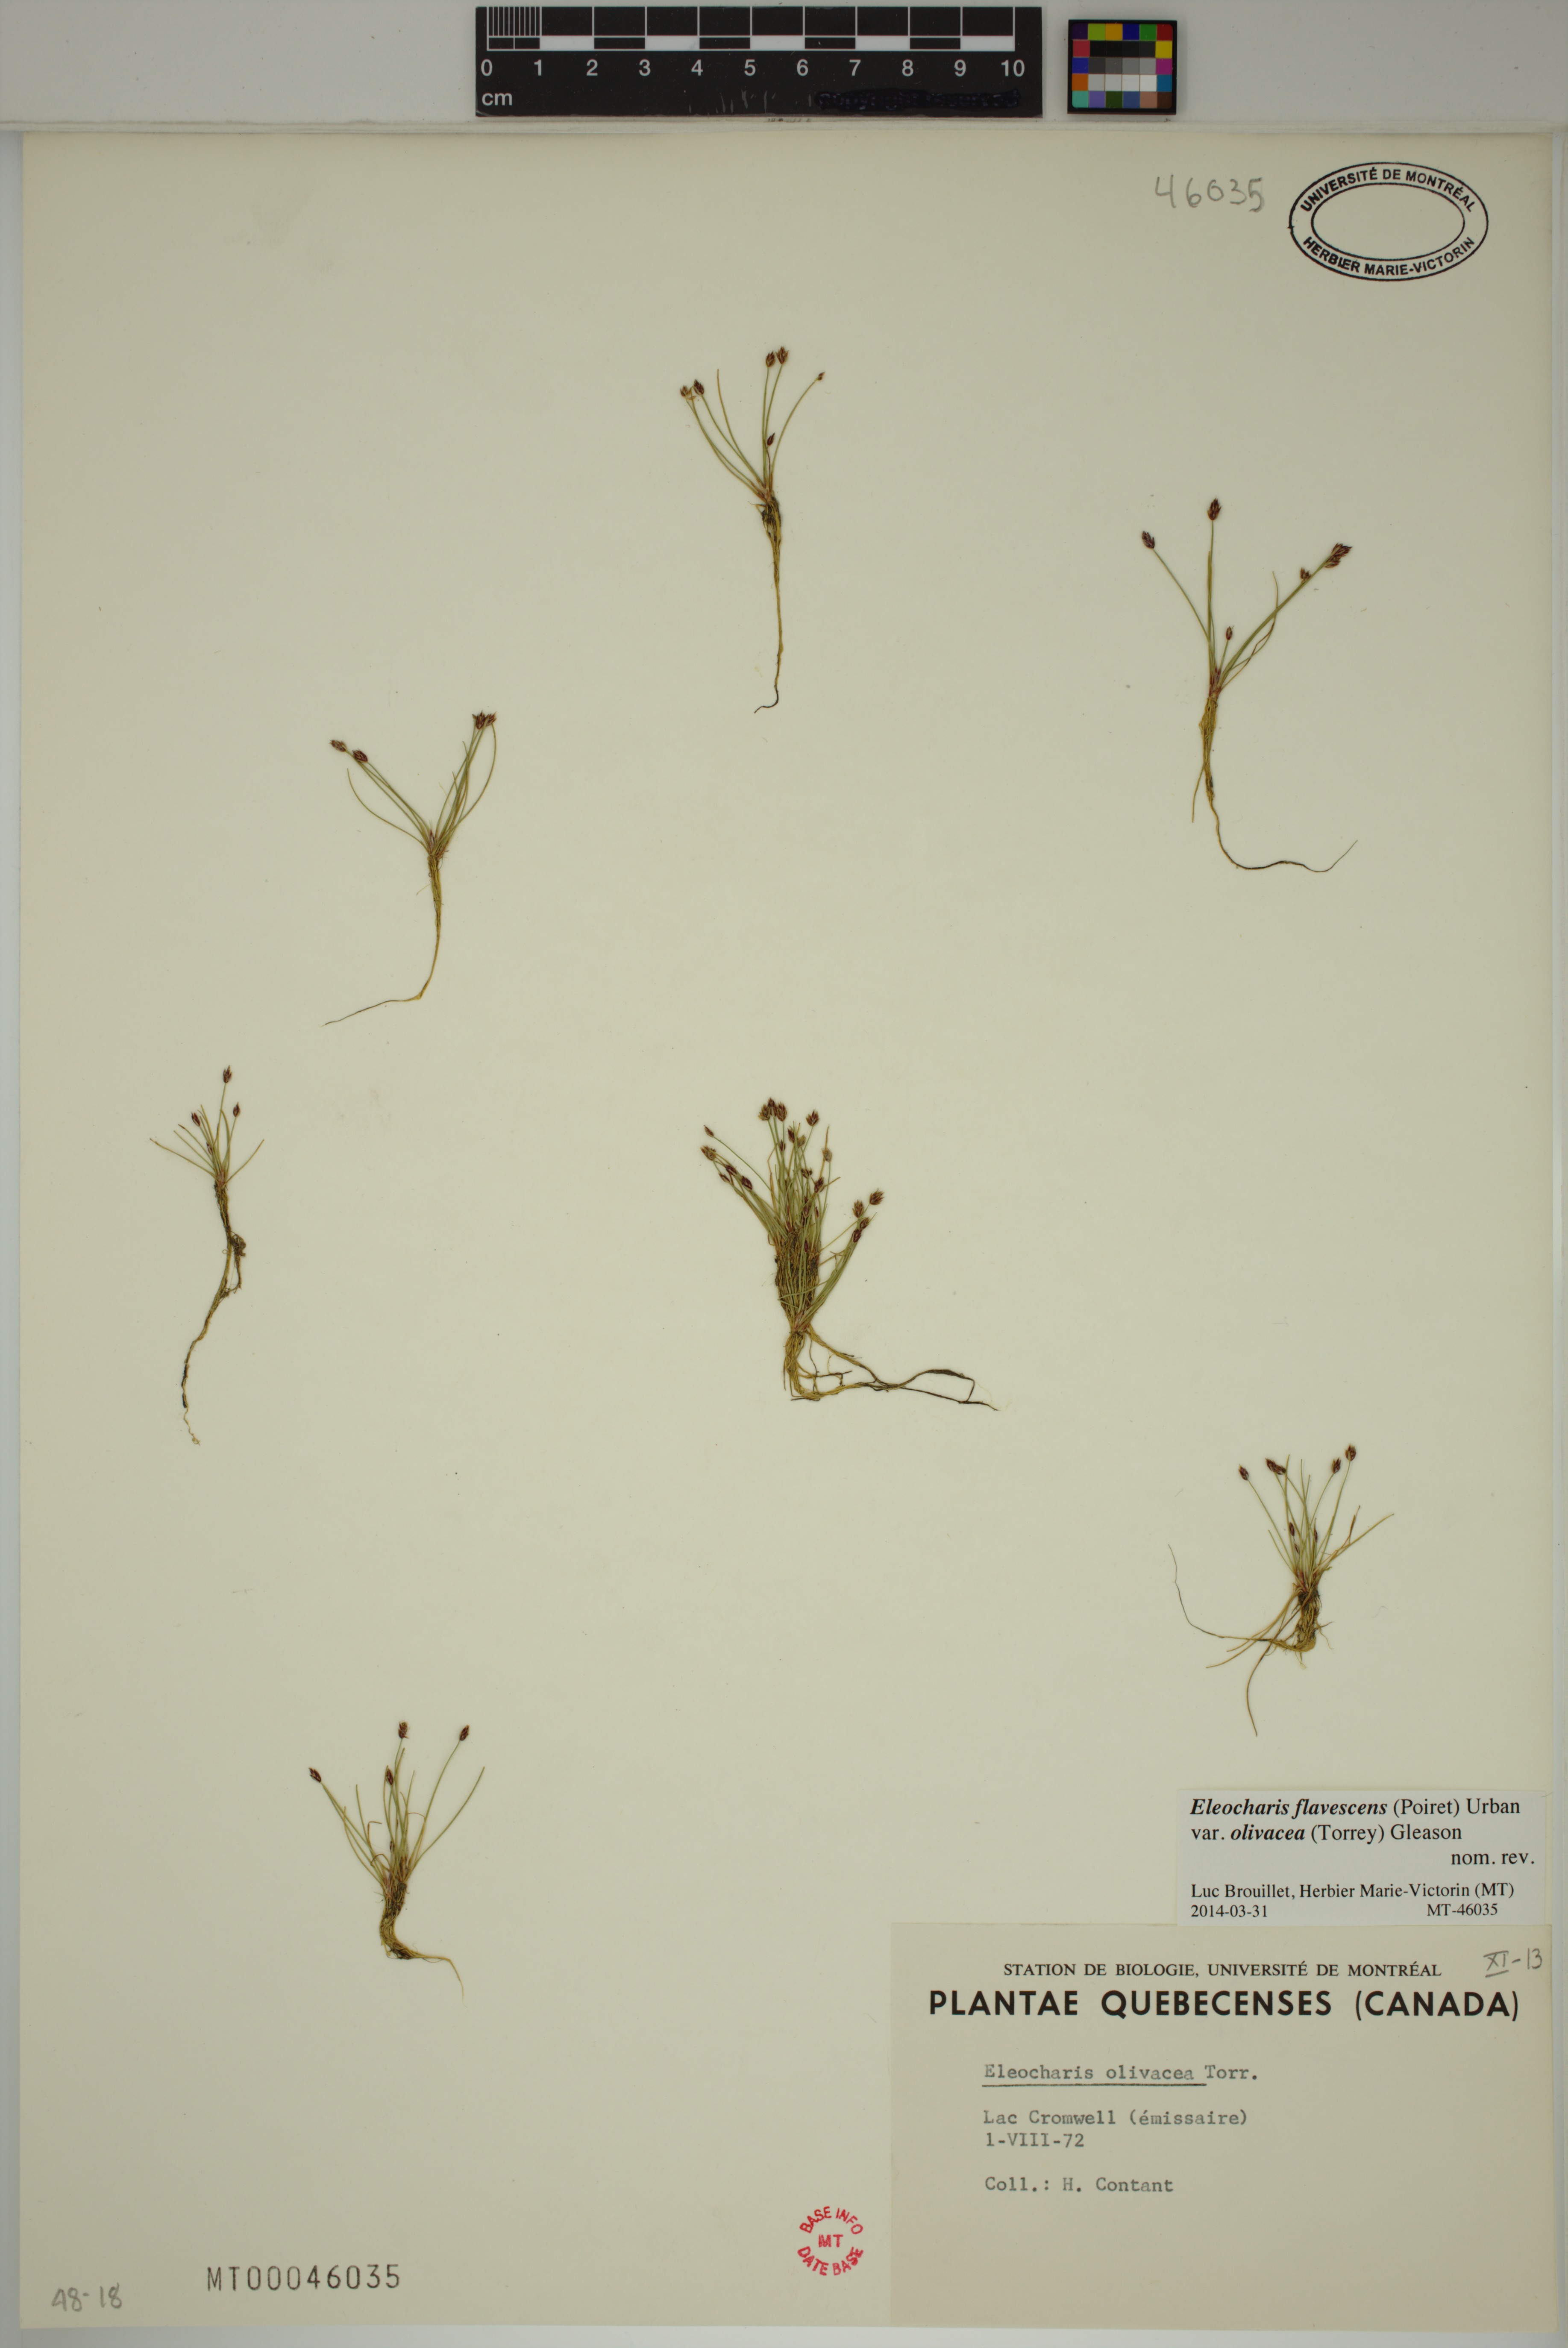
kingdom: Plantae
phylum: Tracheophyta
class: Liliopsida
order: Poales
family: Cyperaceae
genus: Eleocharis
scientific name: Eleocharis flavescens
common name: Yellow spikerush
